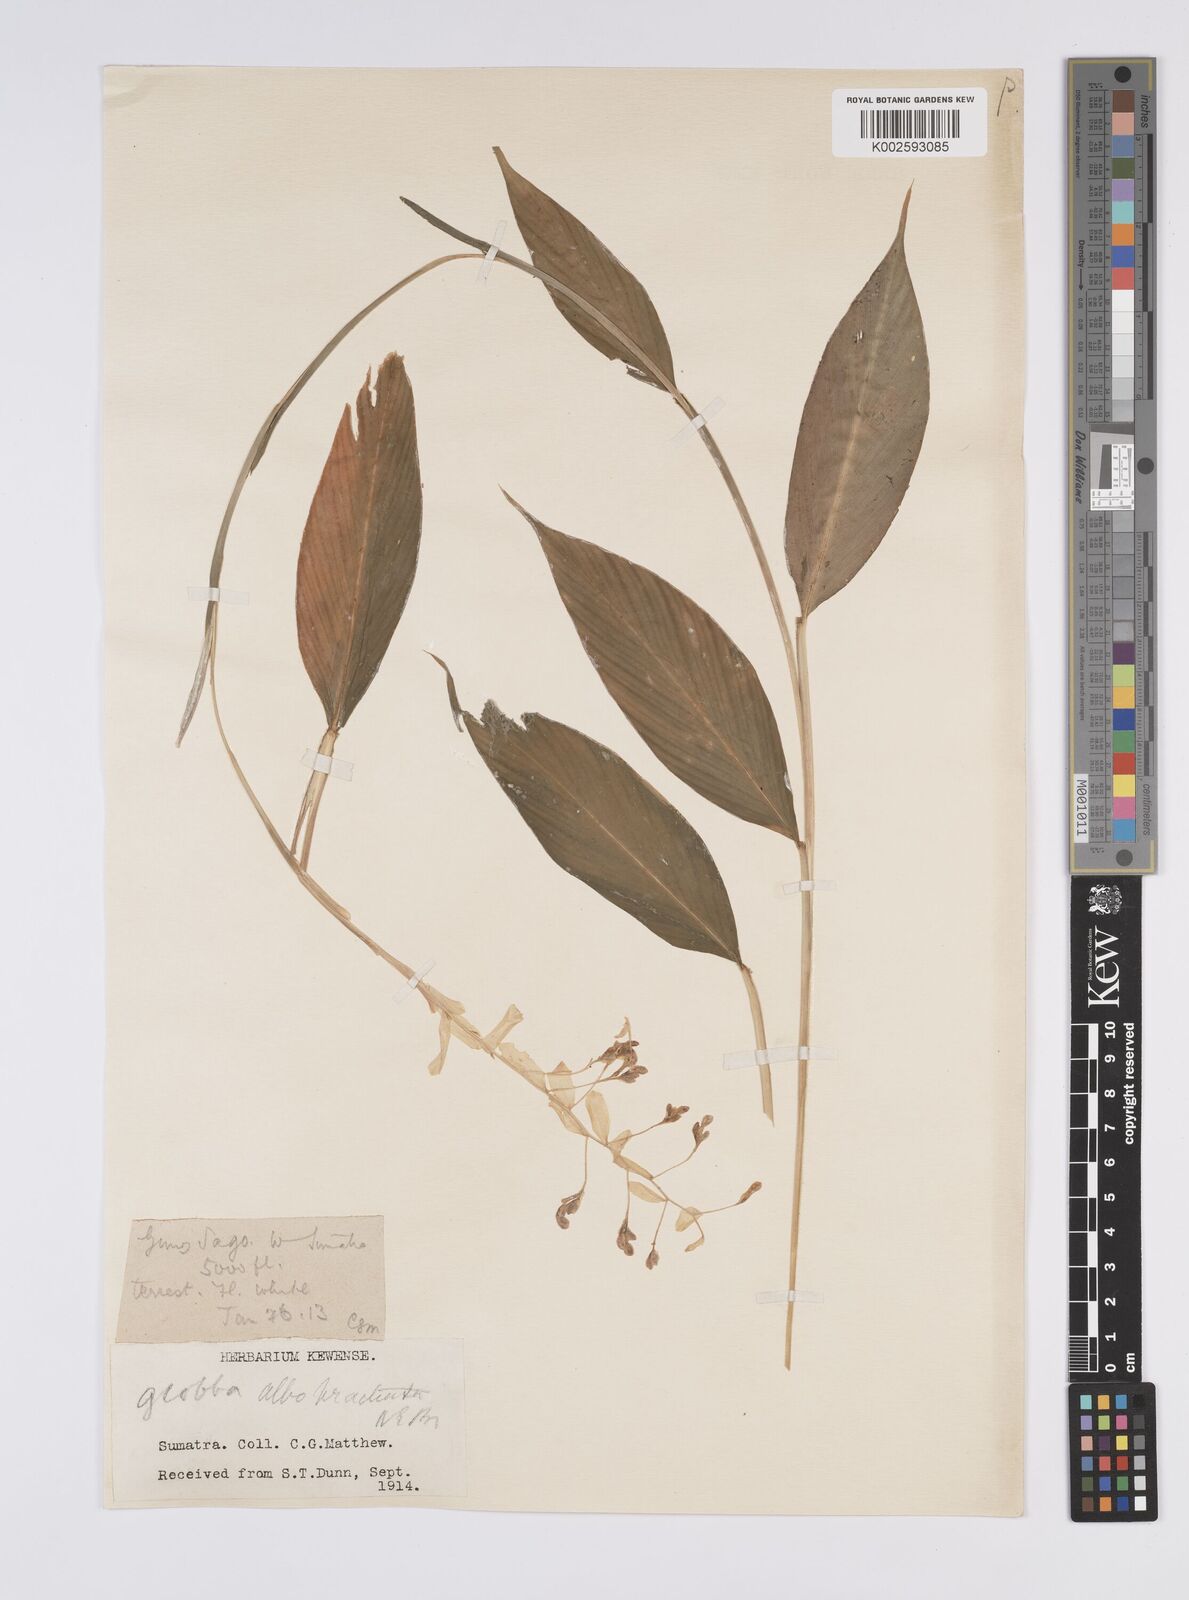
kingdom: Plantae
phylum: Tracheophyta
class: Liliopsida
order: Zingiberales
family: Zingiberaceae
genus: Globba
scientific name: Globba albobracteata
